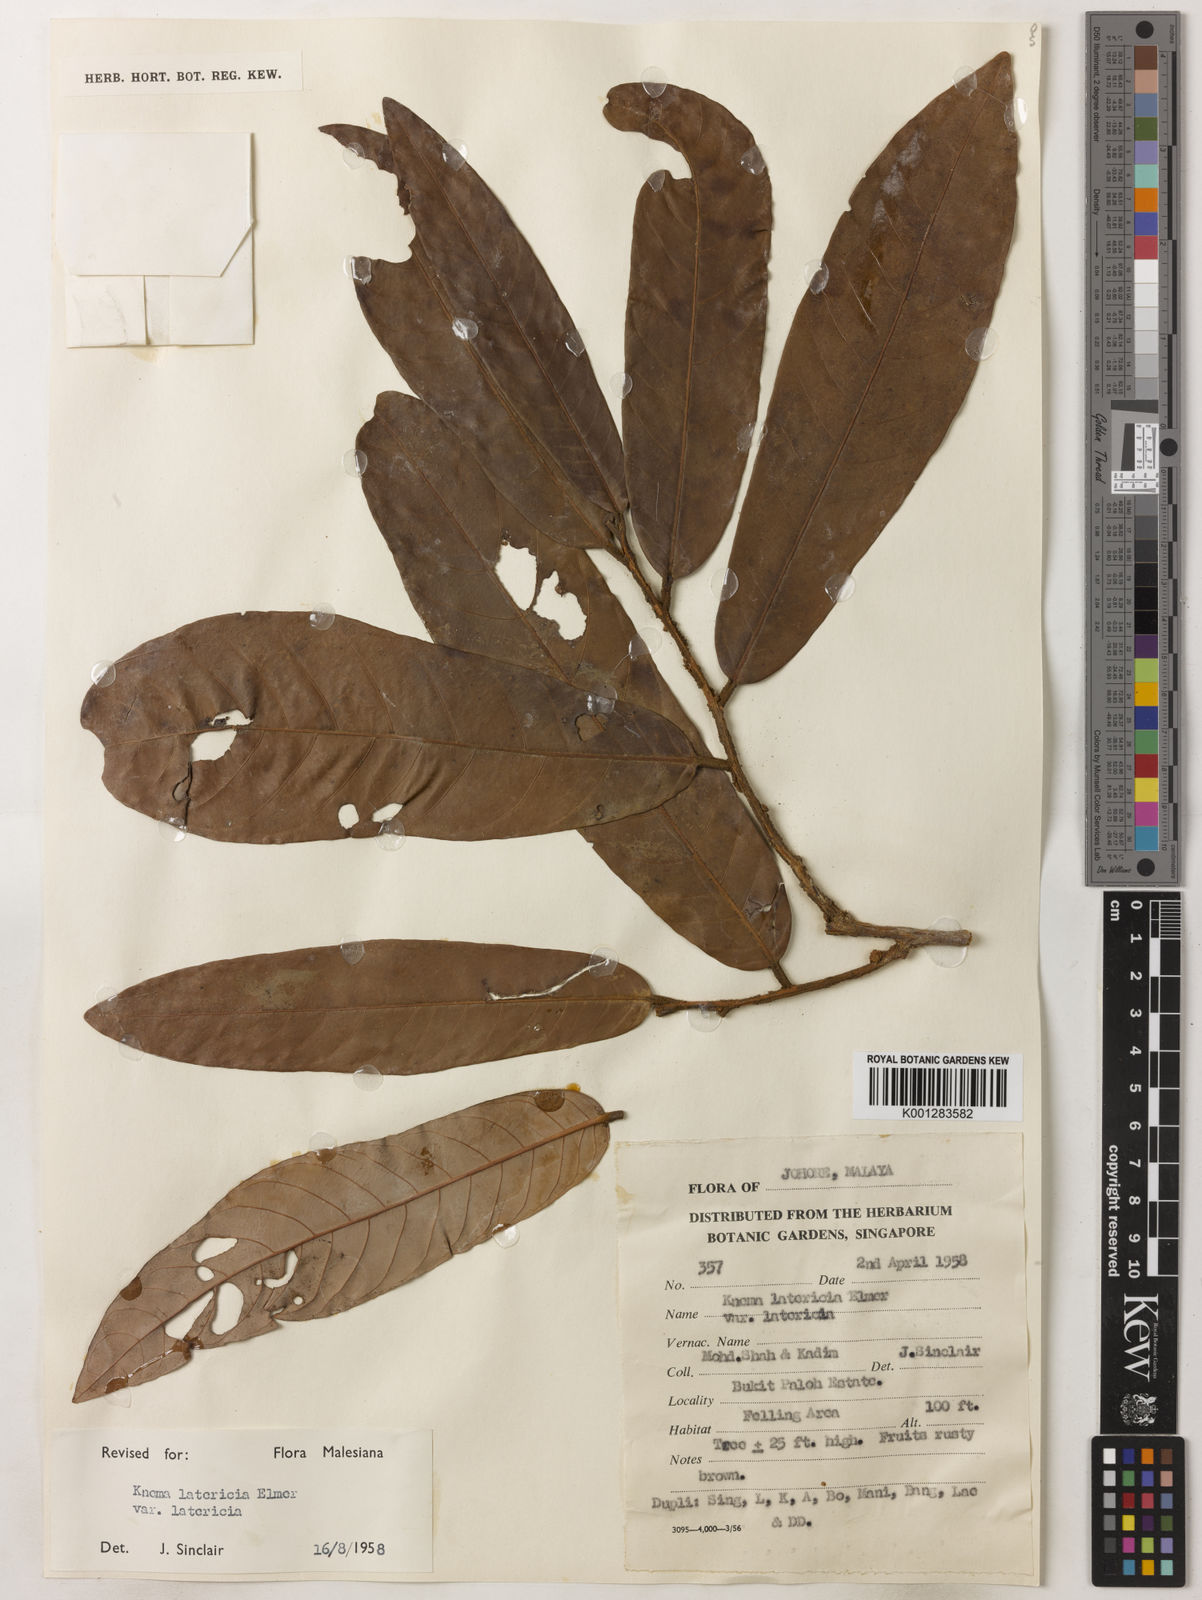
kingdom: Plantae
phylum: Tracheophyta
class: Magnoliopsida
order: Magnoliales
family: Myristicaceae
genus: Knema
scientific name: Knema latericia
